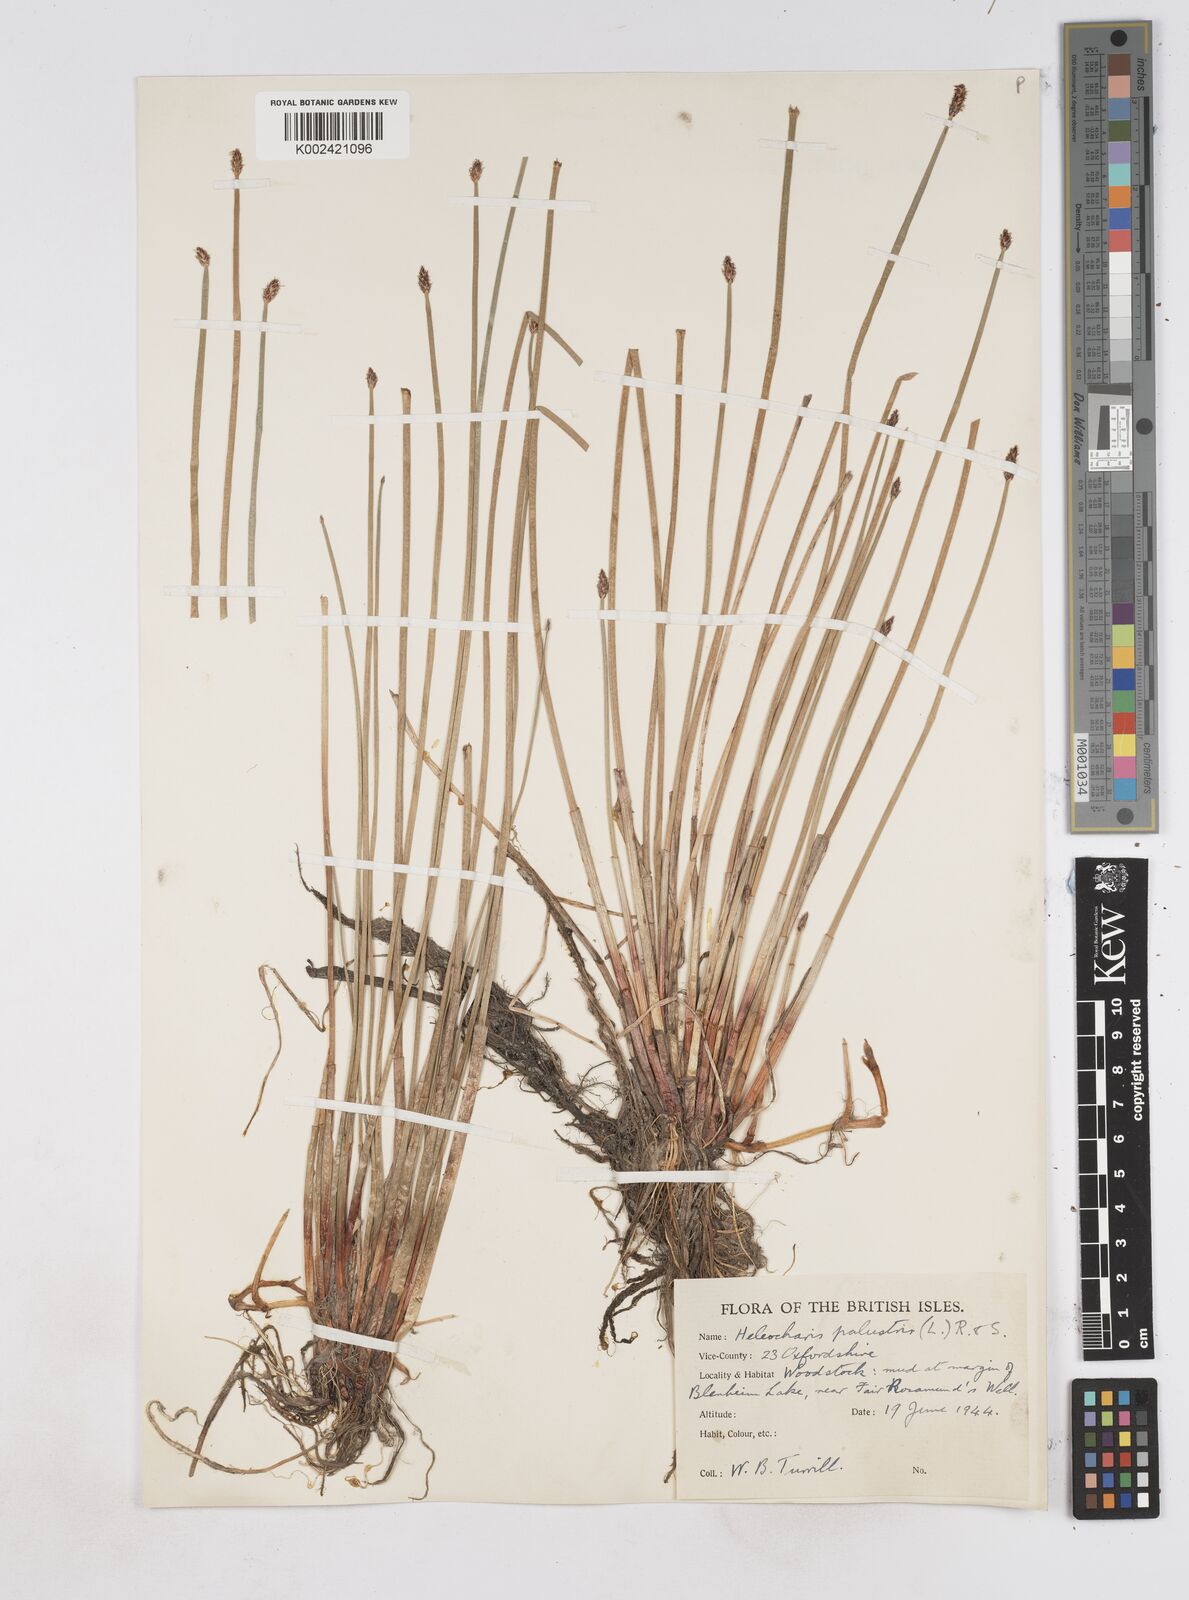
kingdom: Plantae
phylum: Tracheophyta
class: Liliopsida
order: Poales
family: Cyperaceae
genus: Eleocharis
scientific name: Eleocharis palustris
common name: Common spike-rush
